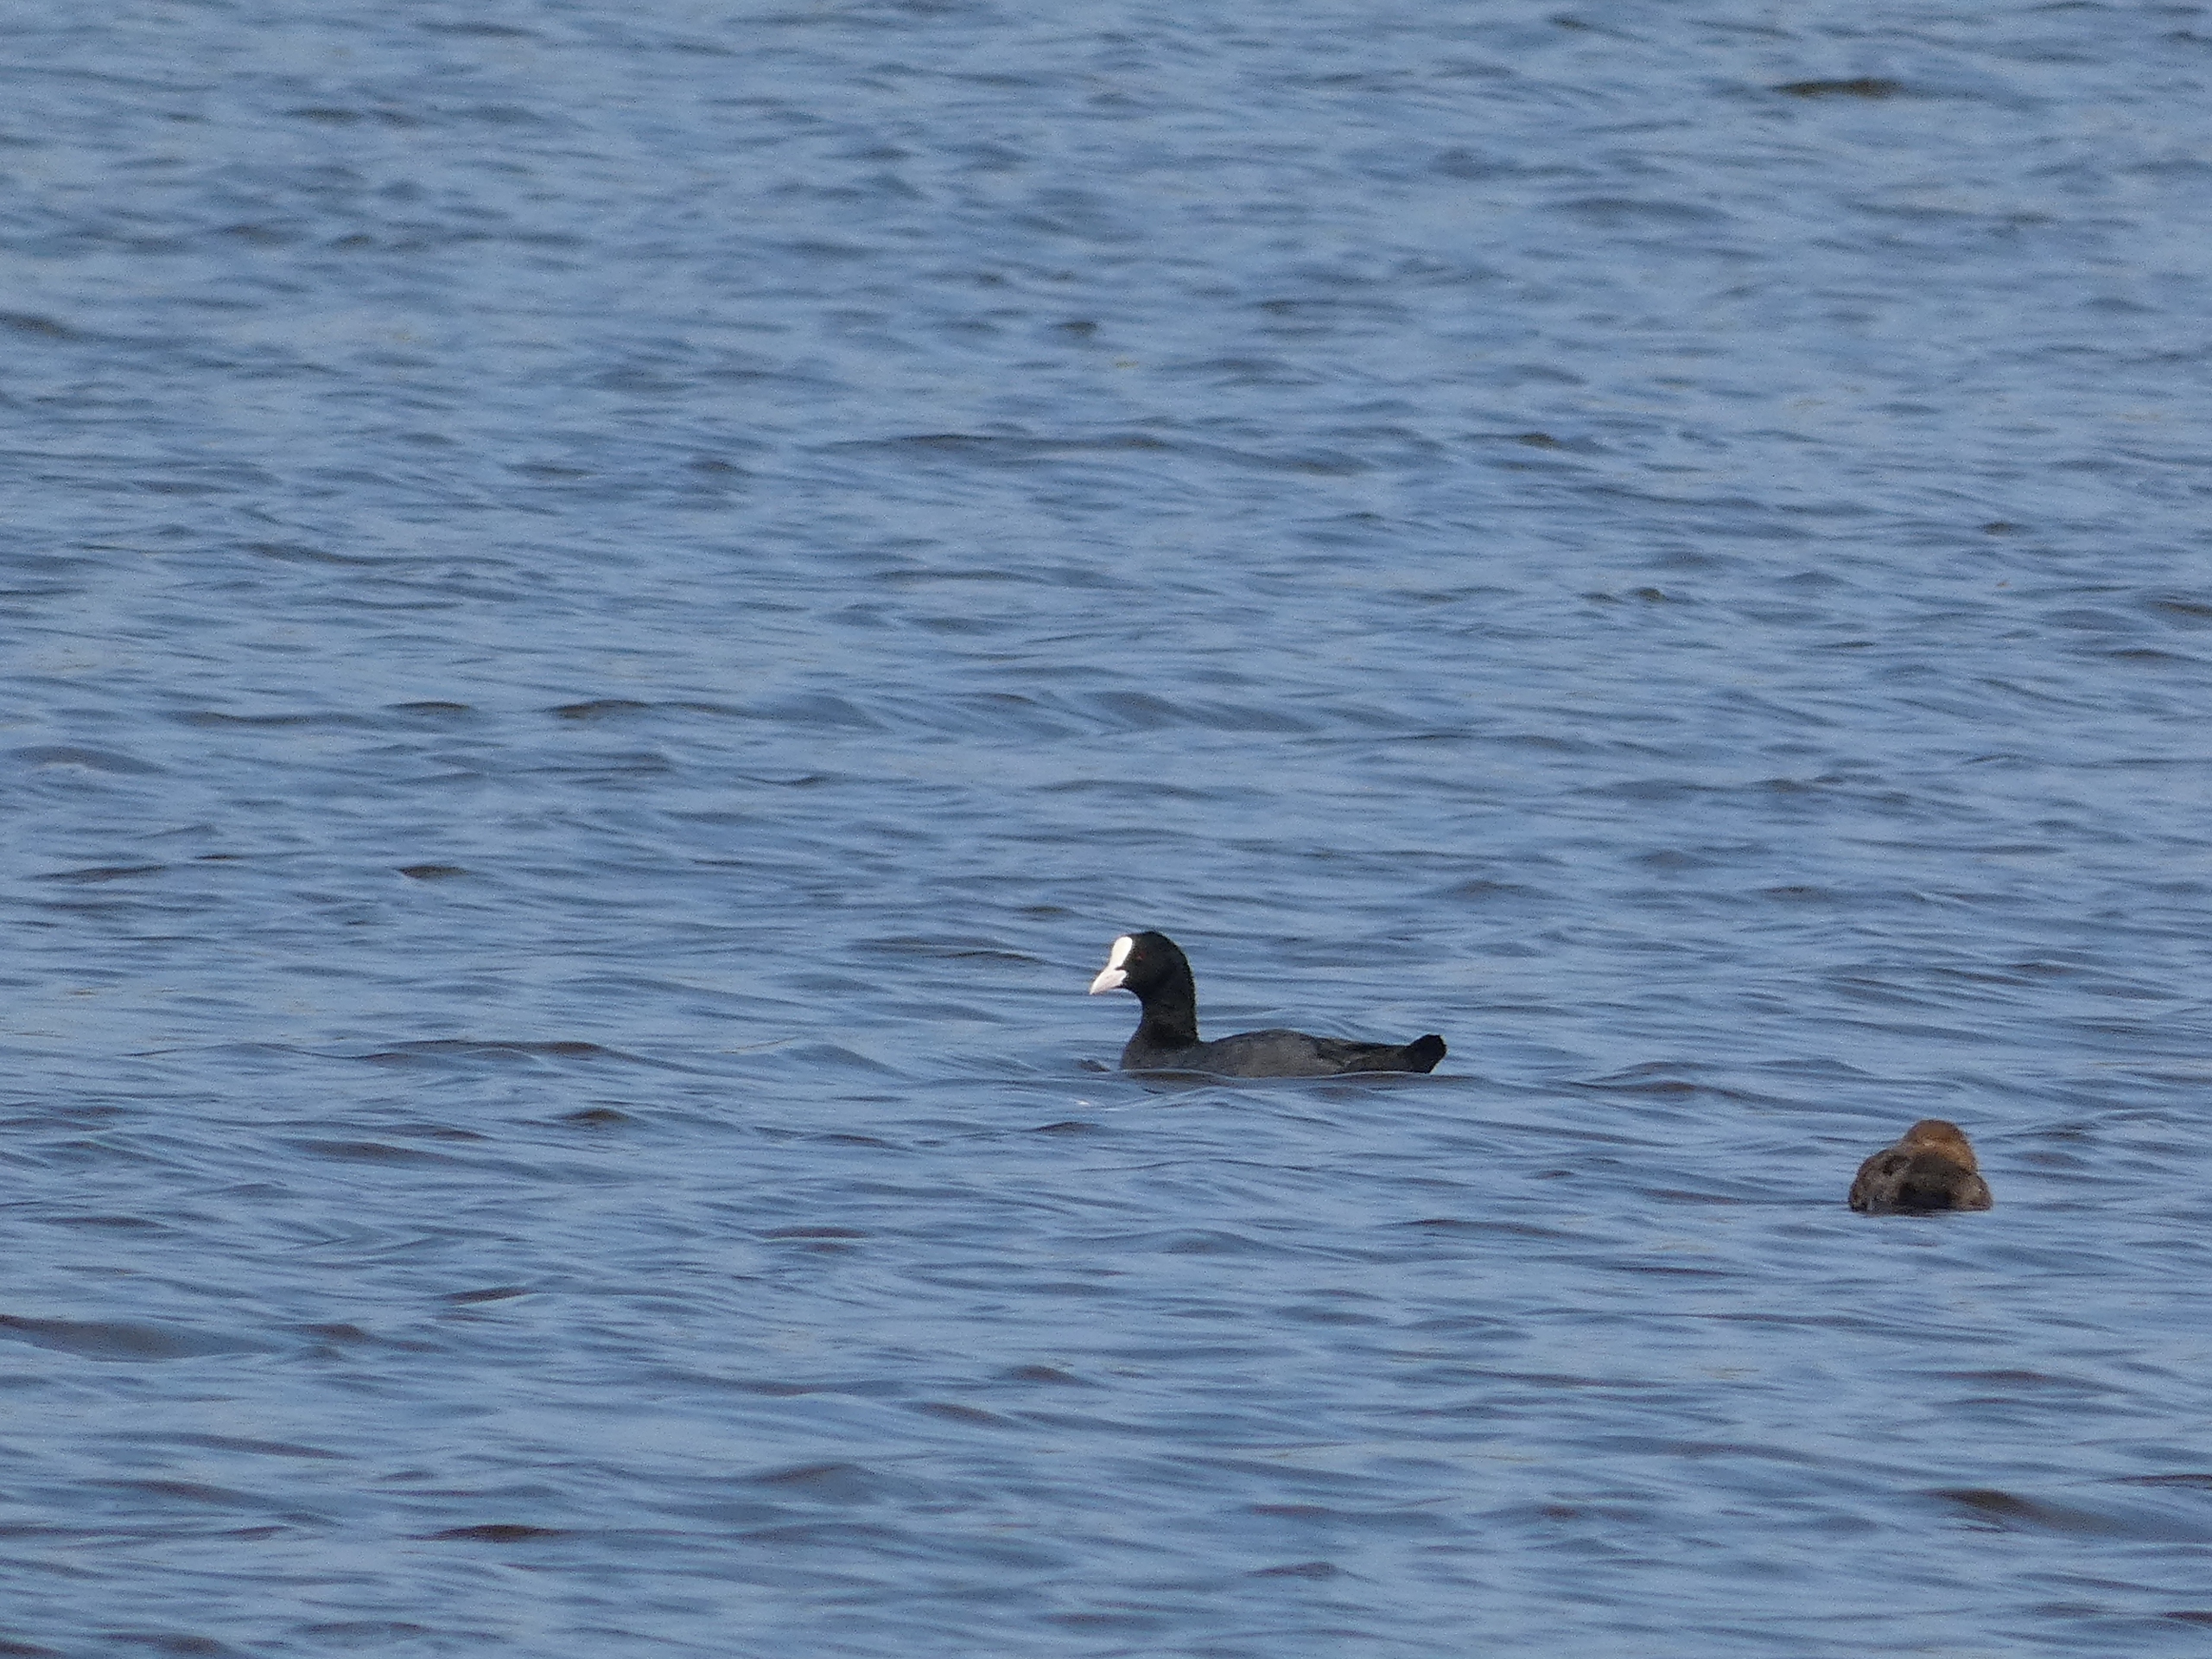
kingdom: Animalia
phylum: Chordata
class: Aves
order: Gruiformes
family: Rallidae
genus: Fulica
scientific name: Fulica atra
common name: Blishøne
